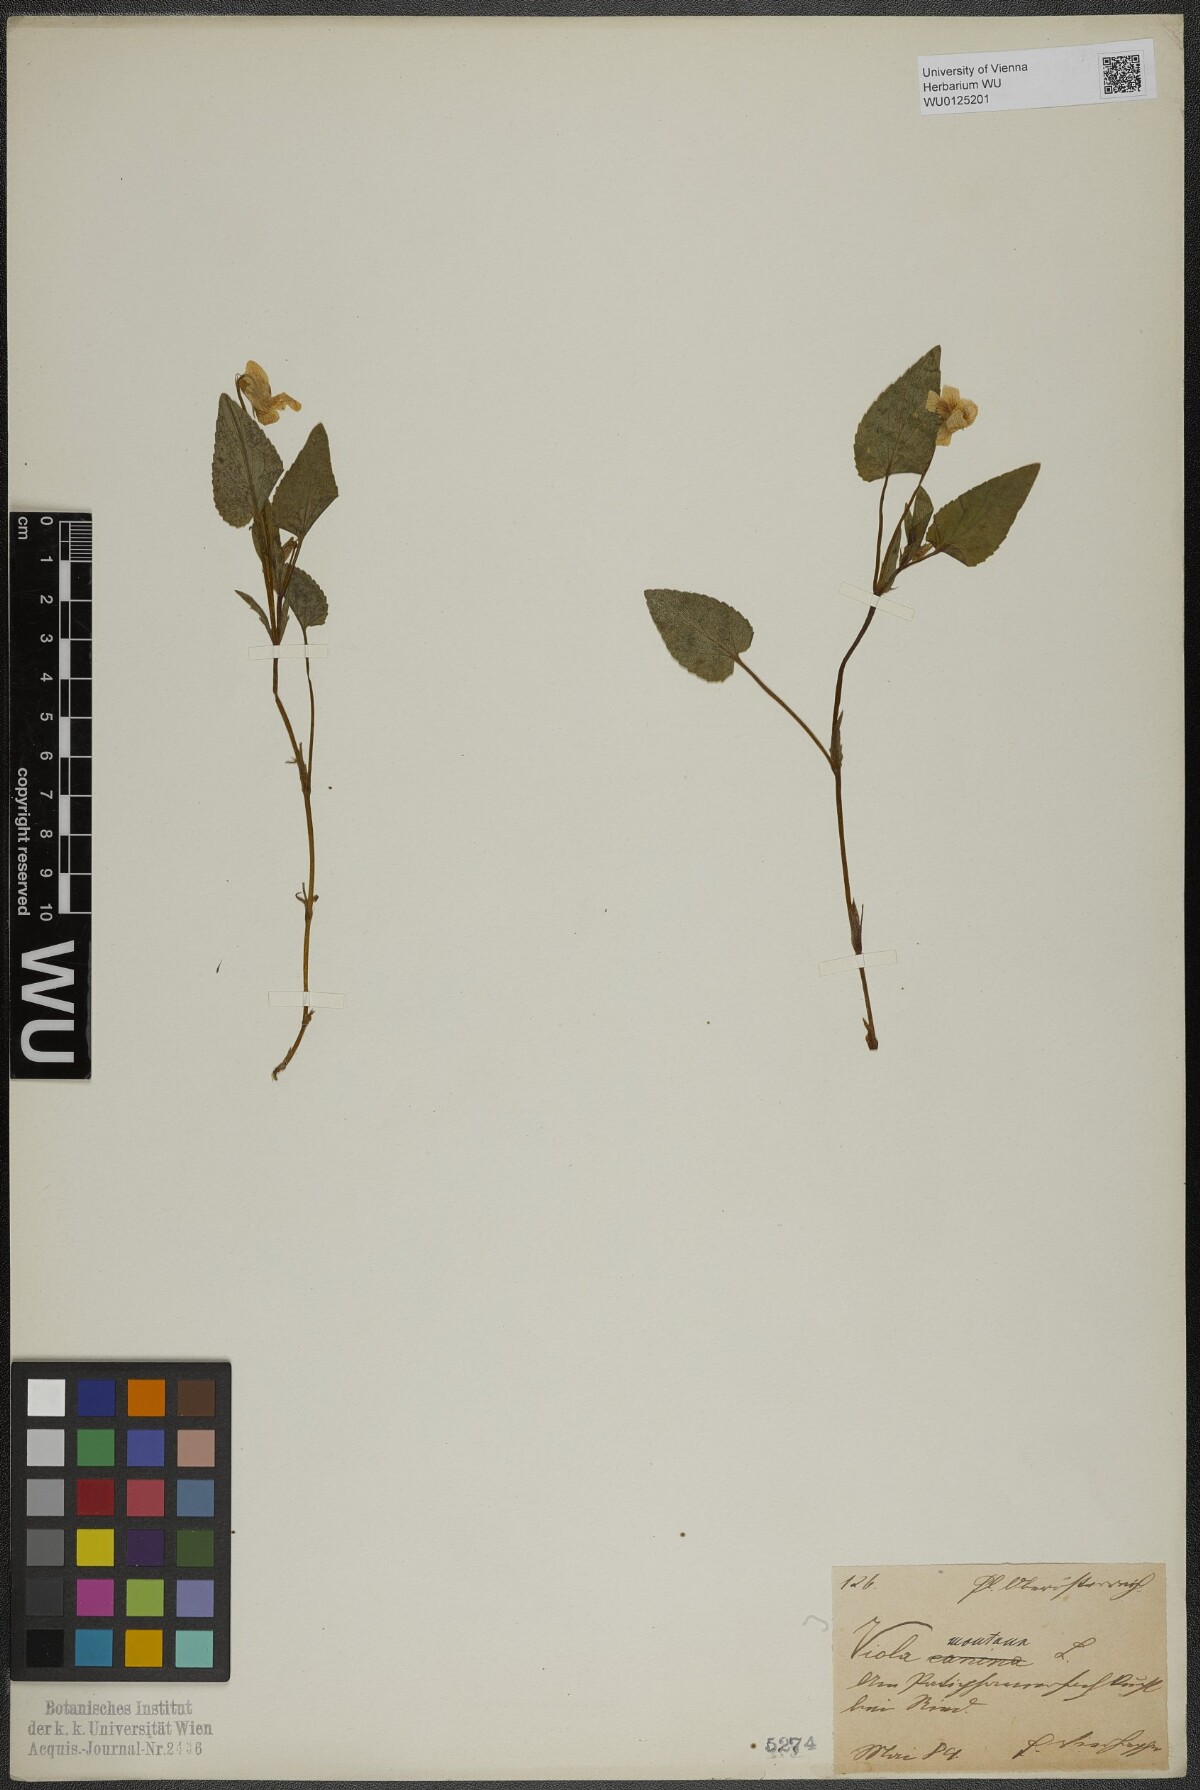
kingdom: Plantae
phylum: Tracheophyta
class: Magnoliopsida
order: Malpighiales
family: Violaceae
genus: Viola
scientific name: Viola ruppii
